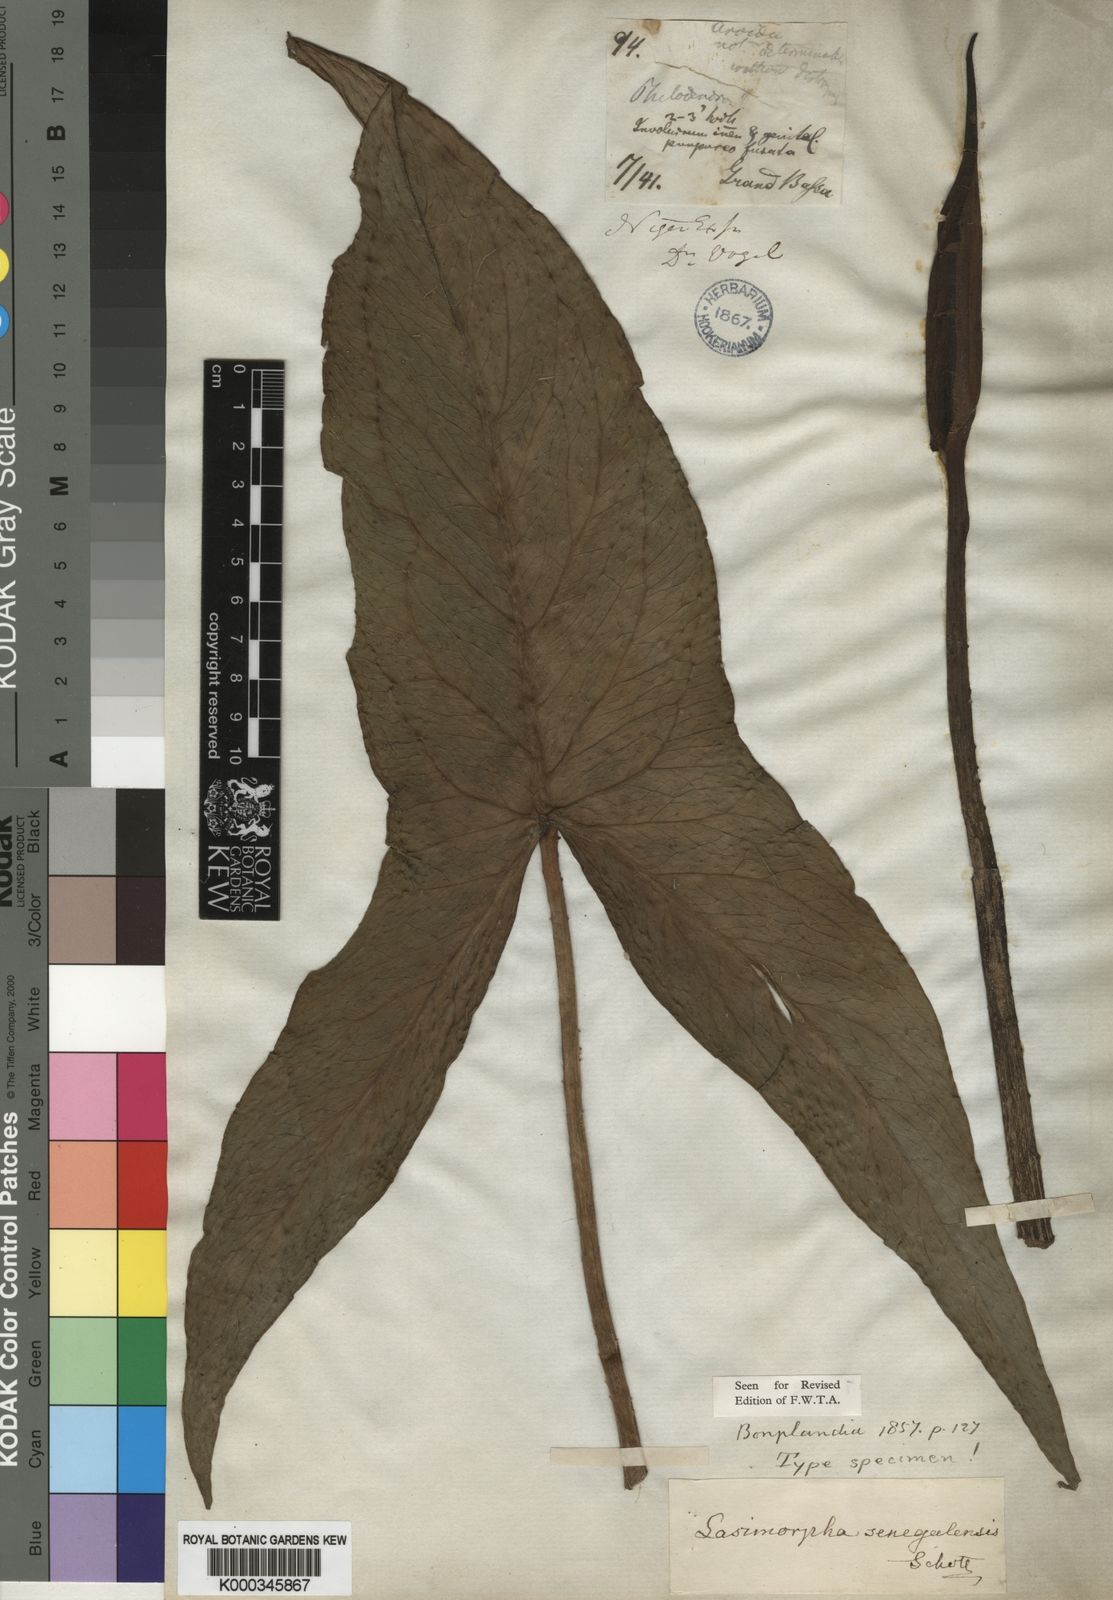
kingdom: Plantae
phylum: Tracheophyta
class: Liliopsida
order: Alismatales
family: Araceae
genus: Lasimorpha
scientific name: Lasimorpha senegalensis
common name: Swamp arum
